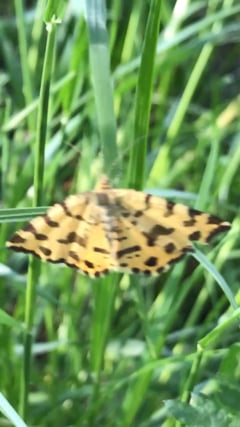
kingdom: Animalia
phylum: Arthropoda
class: Insecta
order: Lepidoptera
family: Geometridae
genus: Pseudopanthera
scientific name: Pseudopanthera macularia
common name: Speckled yellow
